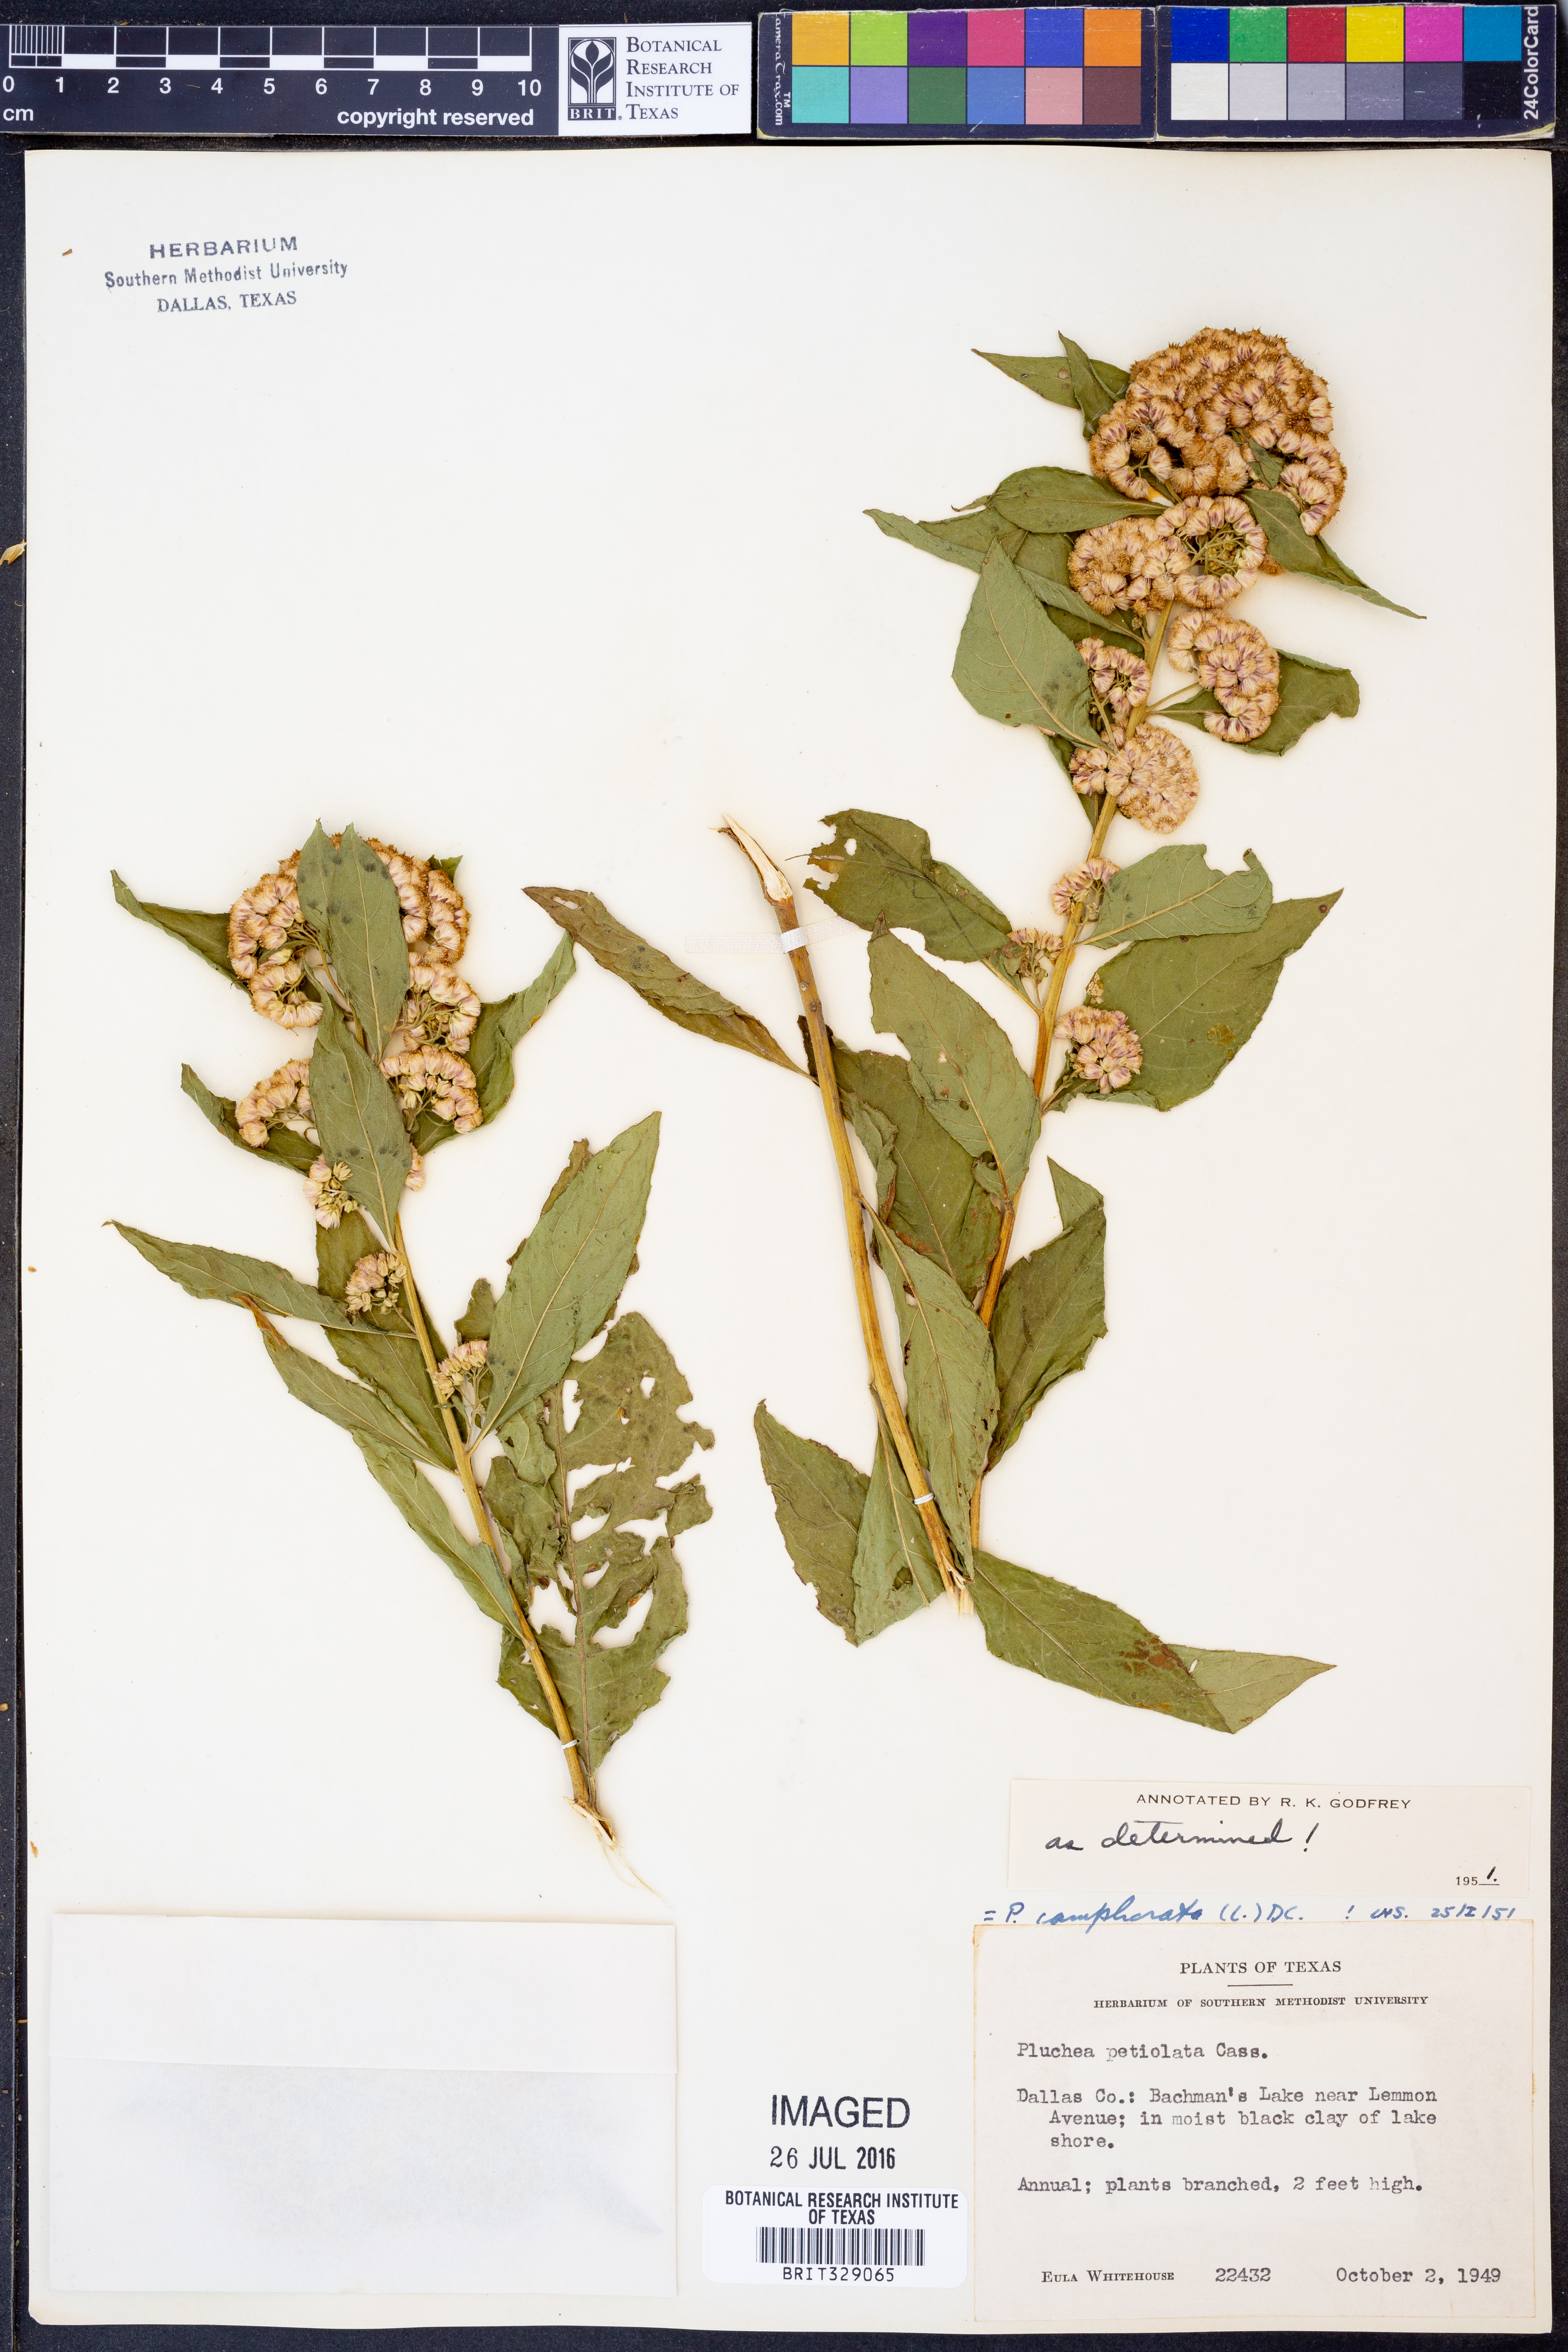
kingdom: Plantae
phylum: Tracheophyta
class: Magnoliopsida
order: Asterales
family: Asteraceae
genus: Pluchea
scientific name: Pluchea camphorata
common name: Camphor pluchea
